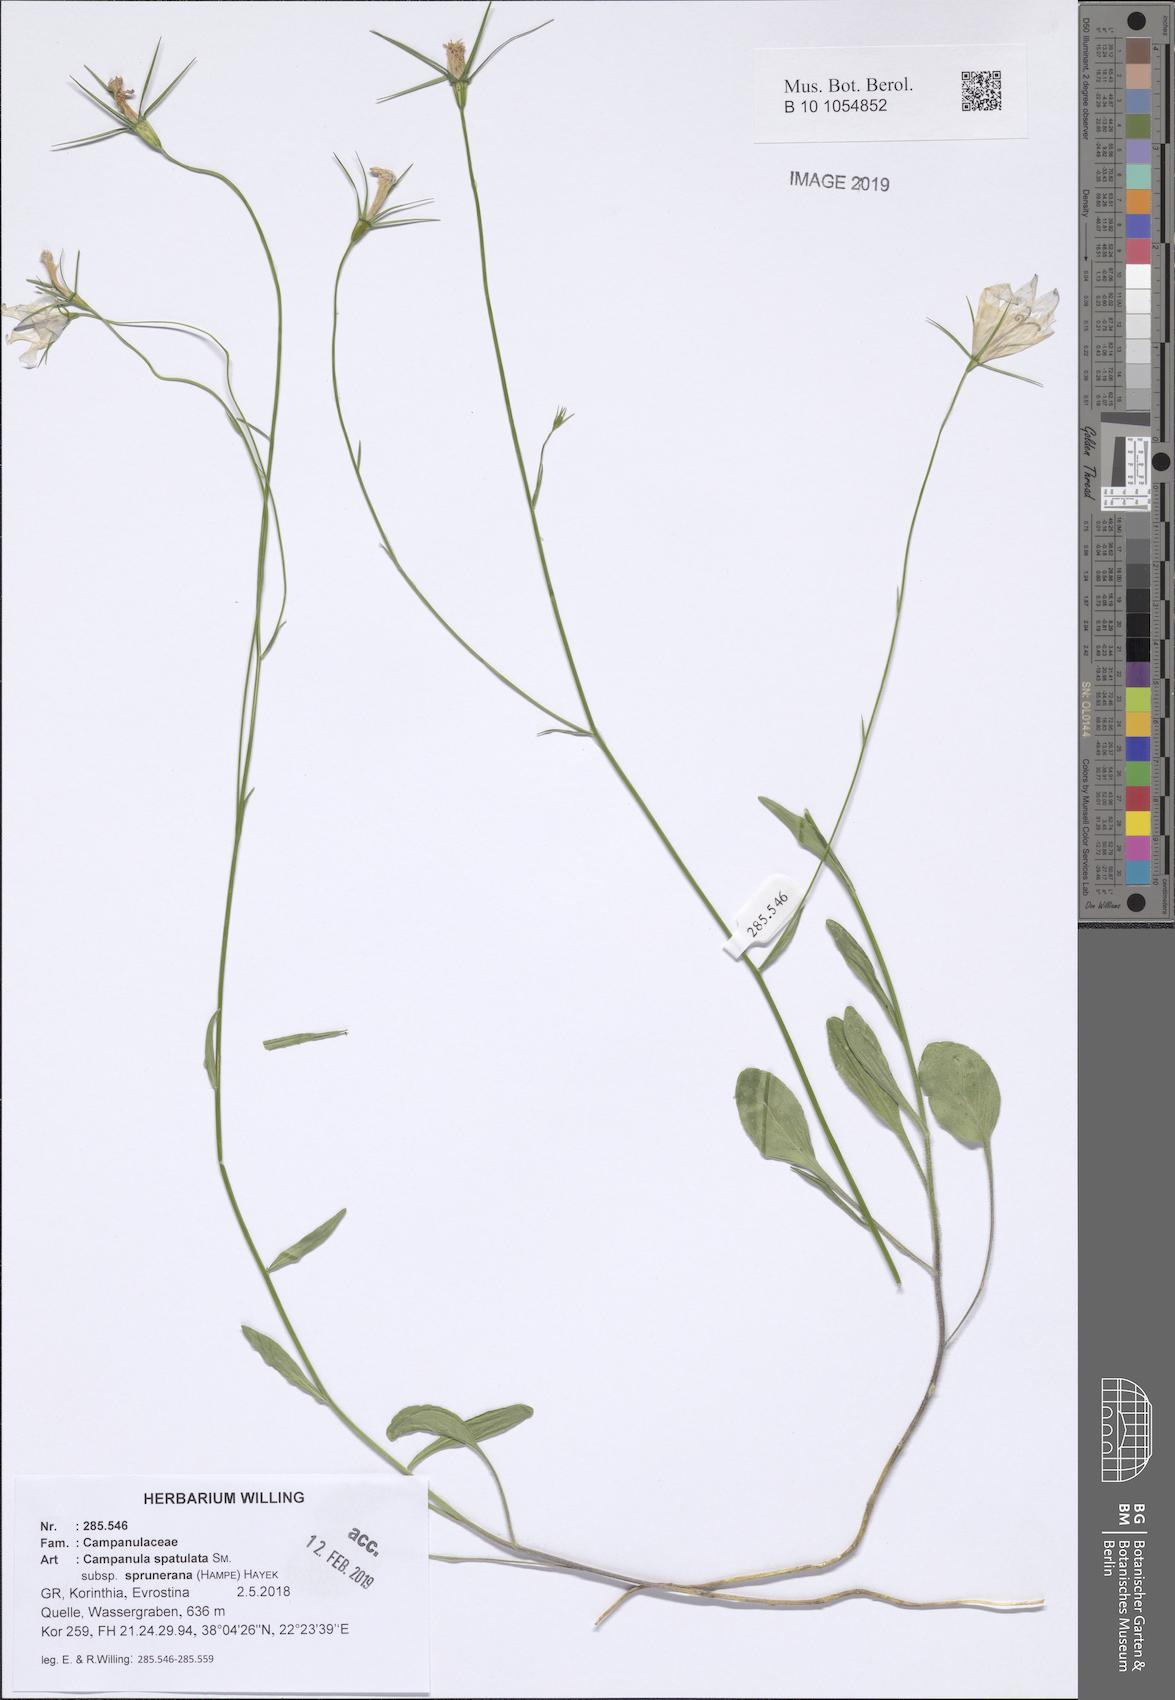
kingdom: Plantae
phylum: Tracheophyta
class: Magnoliopsida
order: Asterales
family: Campanulaceae
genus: Campanula
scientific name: Campanula spatulata
